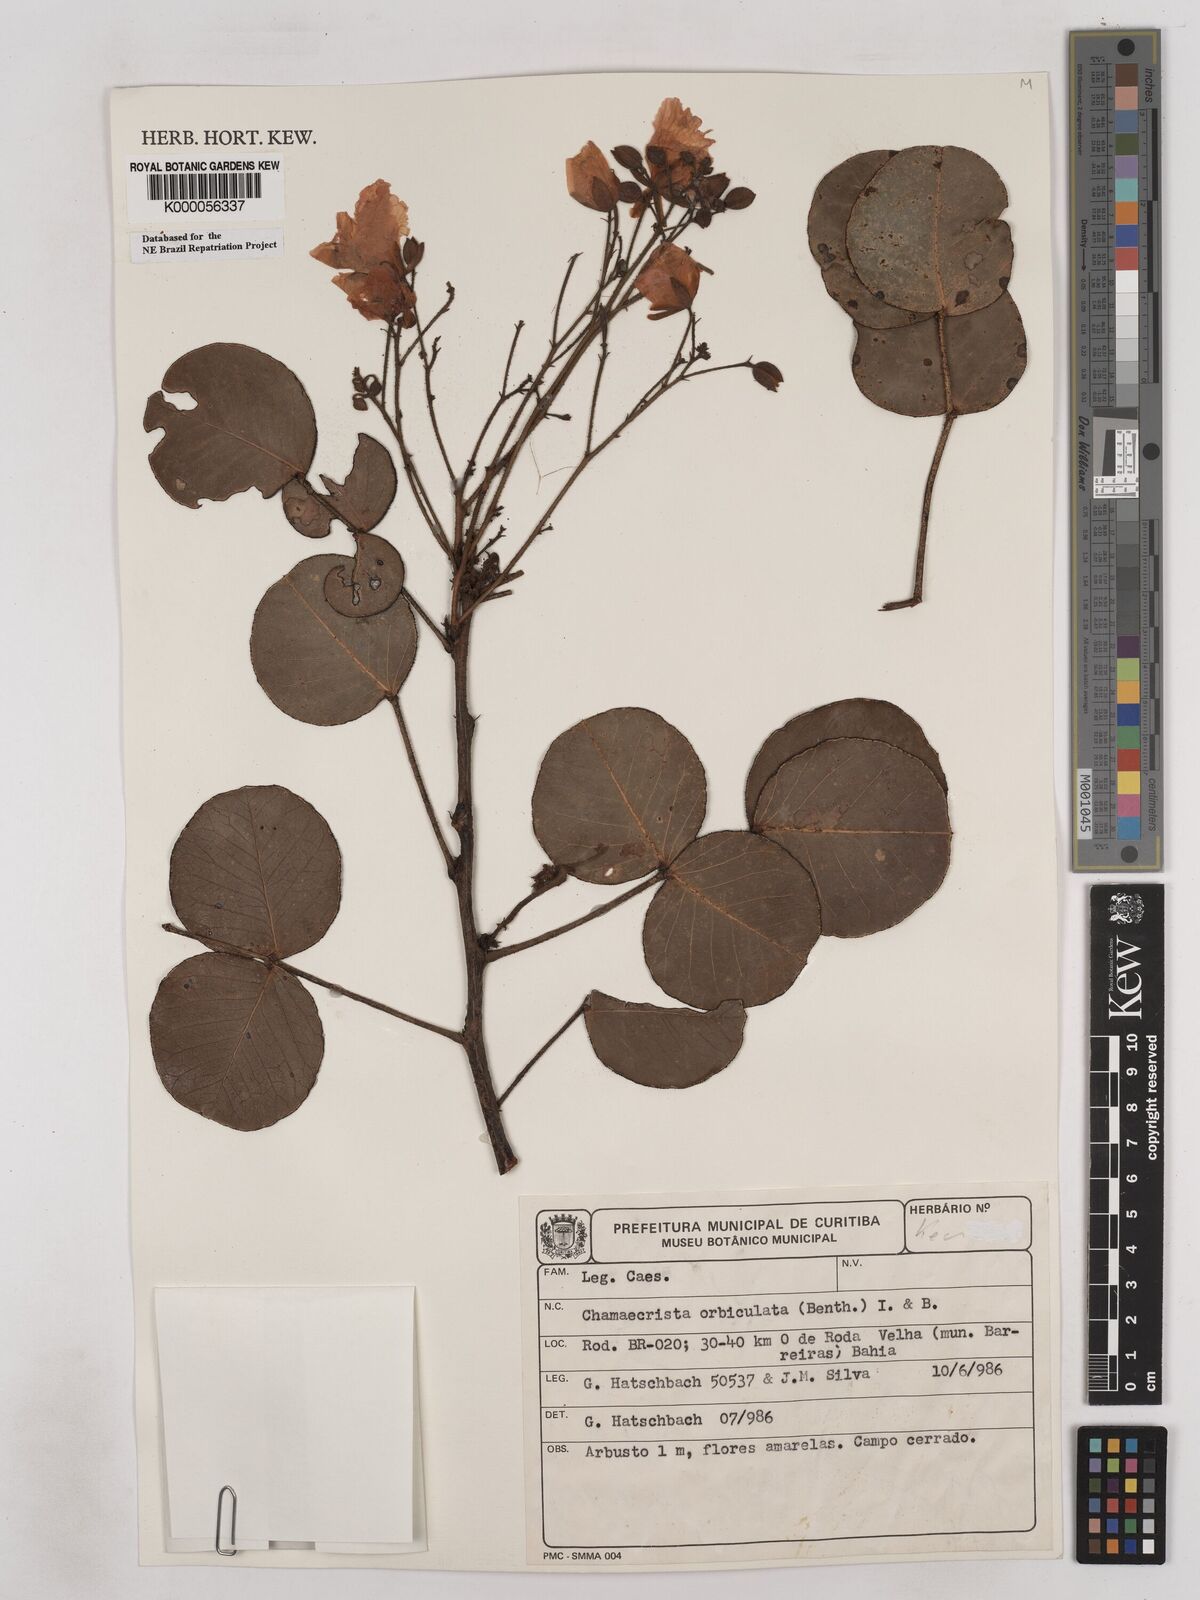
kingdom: Plantae
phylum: Tracheophyta
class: Magnoliopsida
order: Fabales
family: Fabaceae
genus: Chamaecrista
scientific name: Chamaecrista orbiculata
